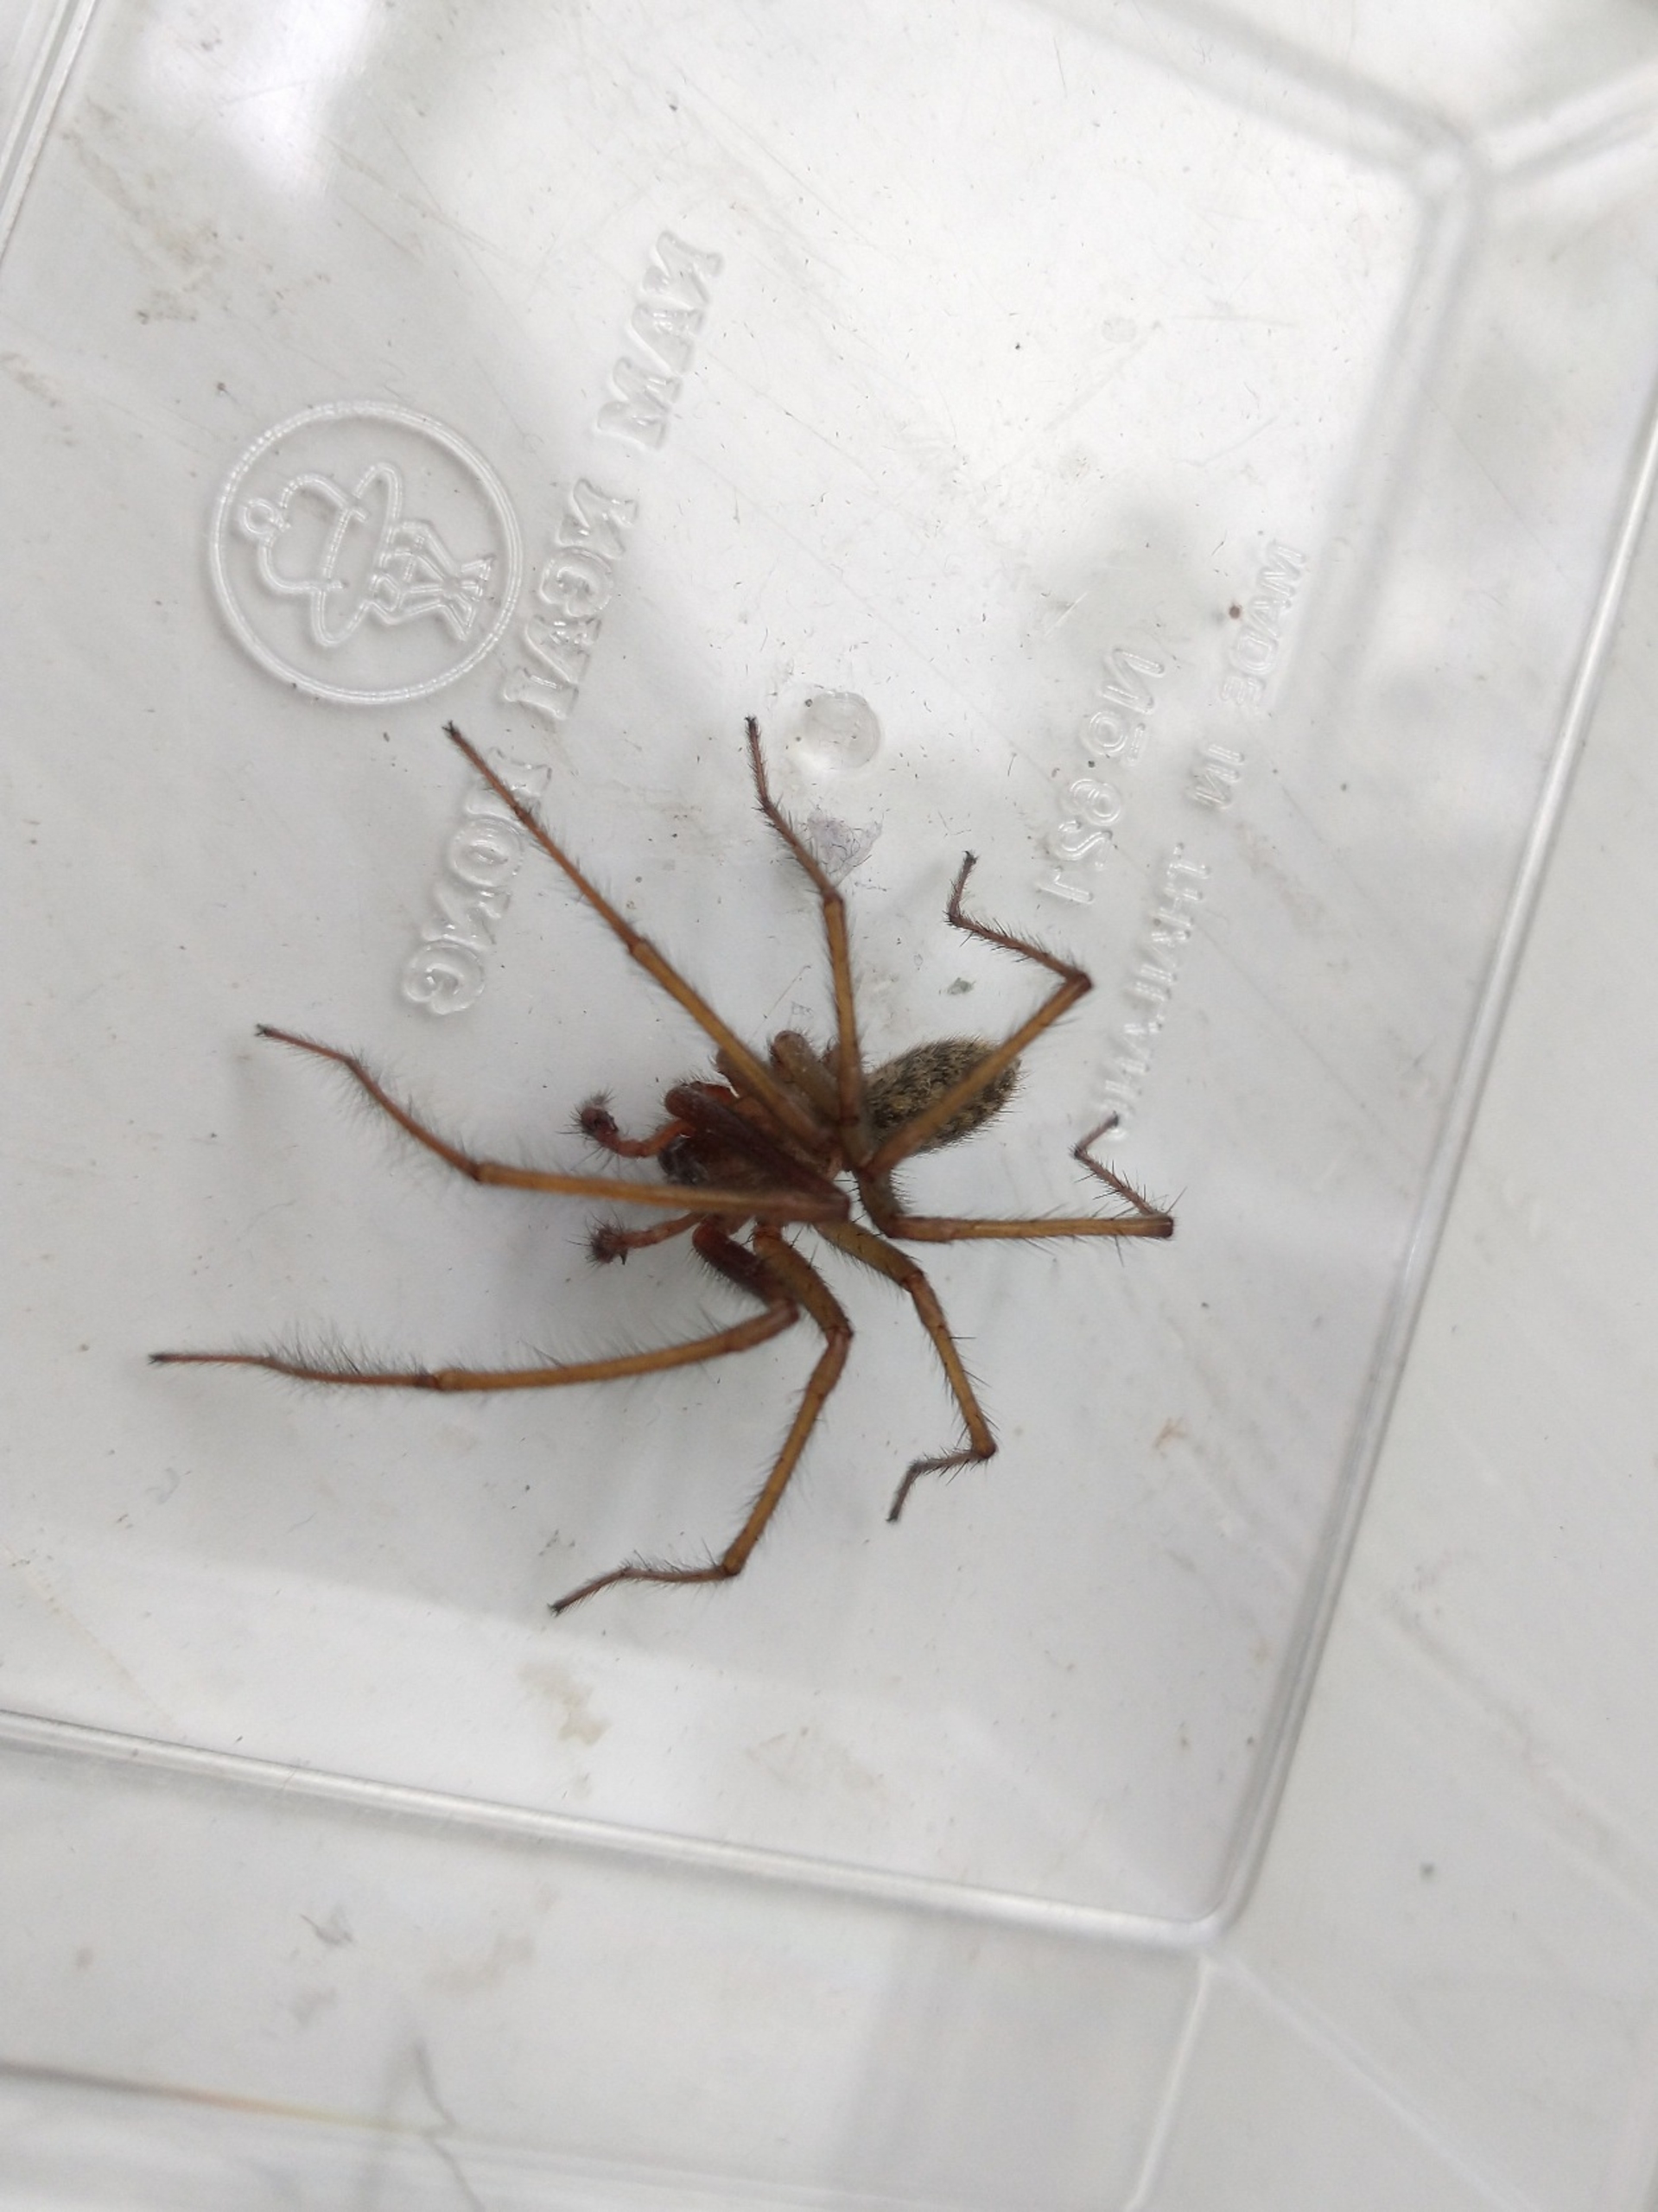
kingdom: Animalia
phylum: Arthropoda
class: Arachnida
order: Araneae
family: Agelenidae
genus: Eratigena
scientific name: Eratigena atrica
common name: Stor husedderkop
